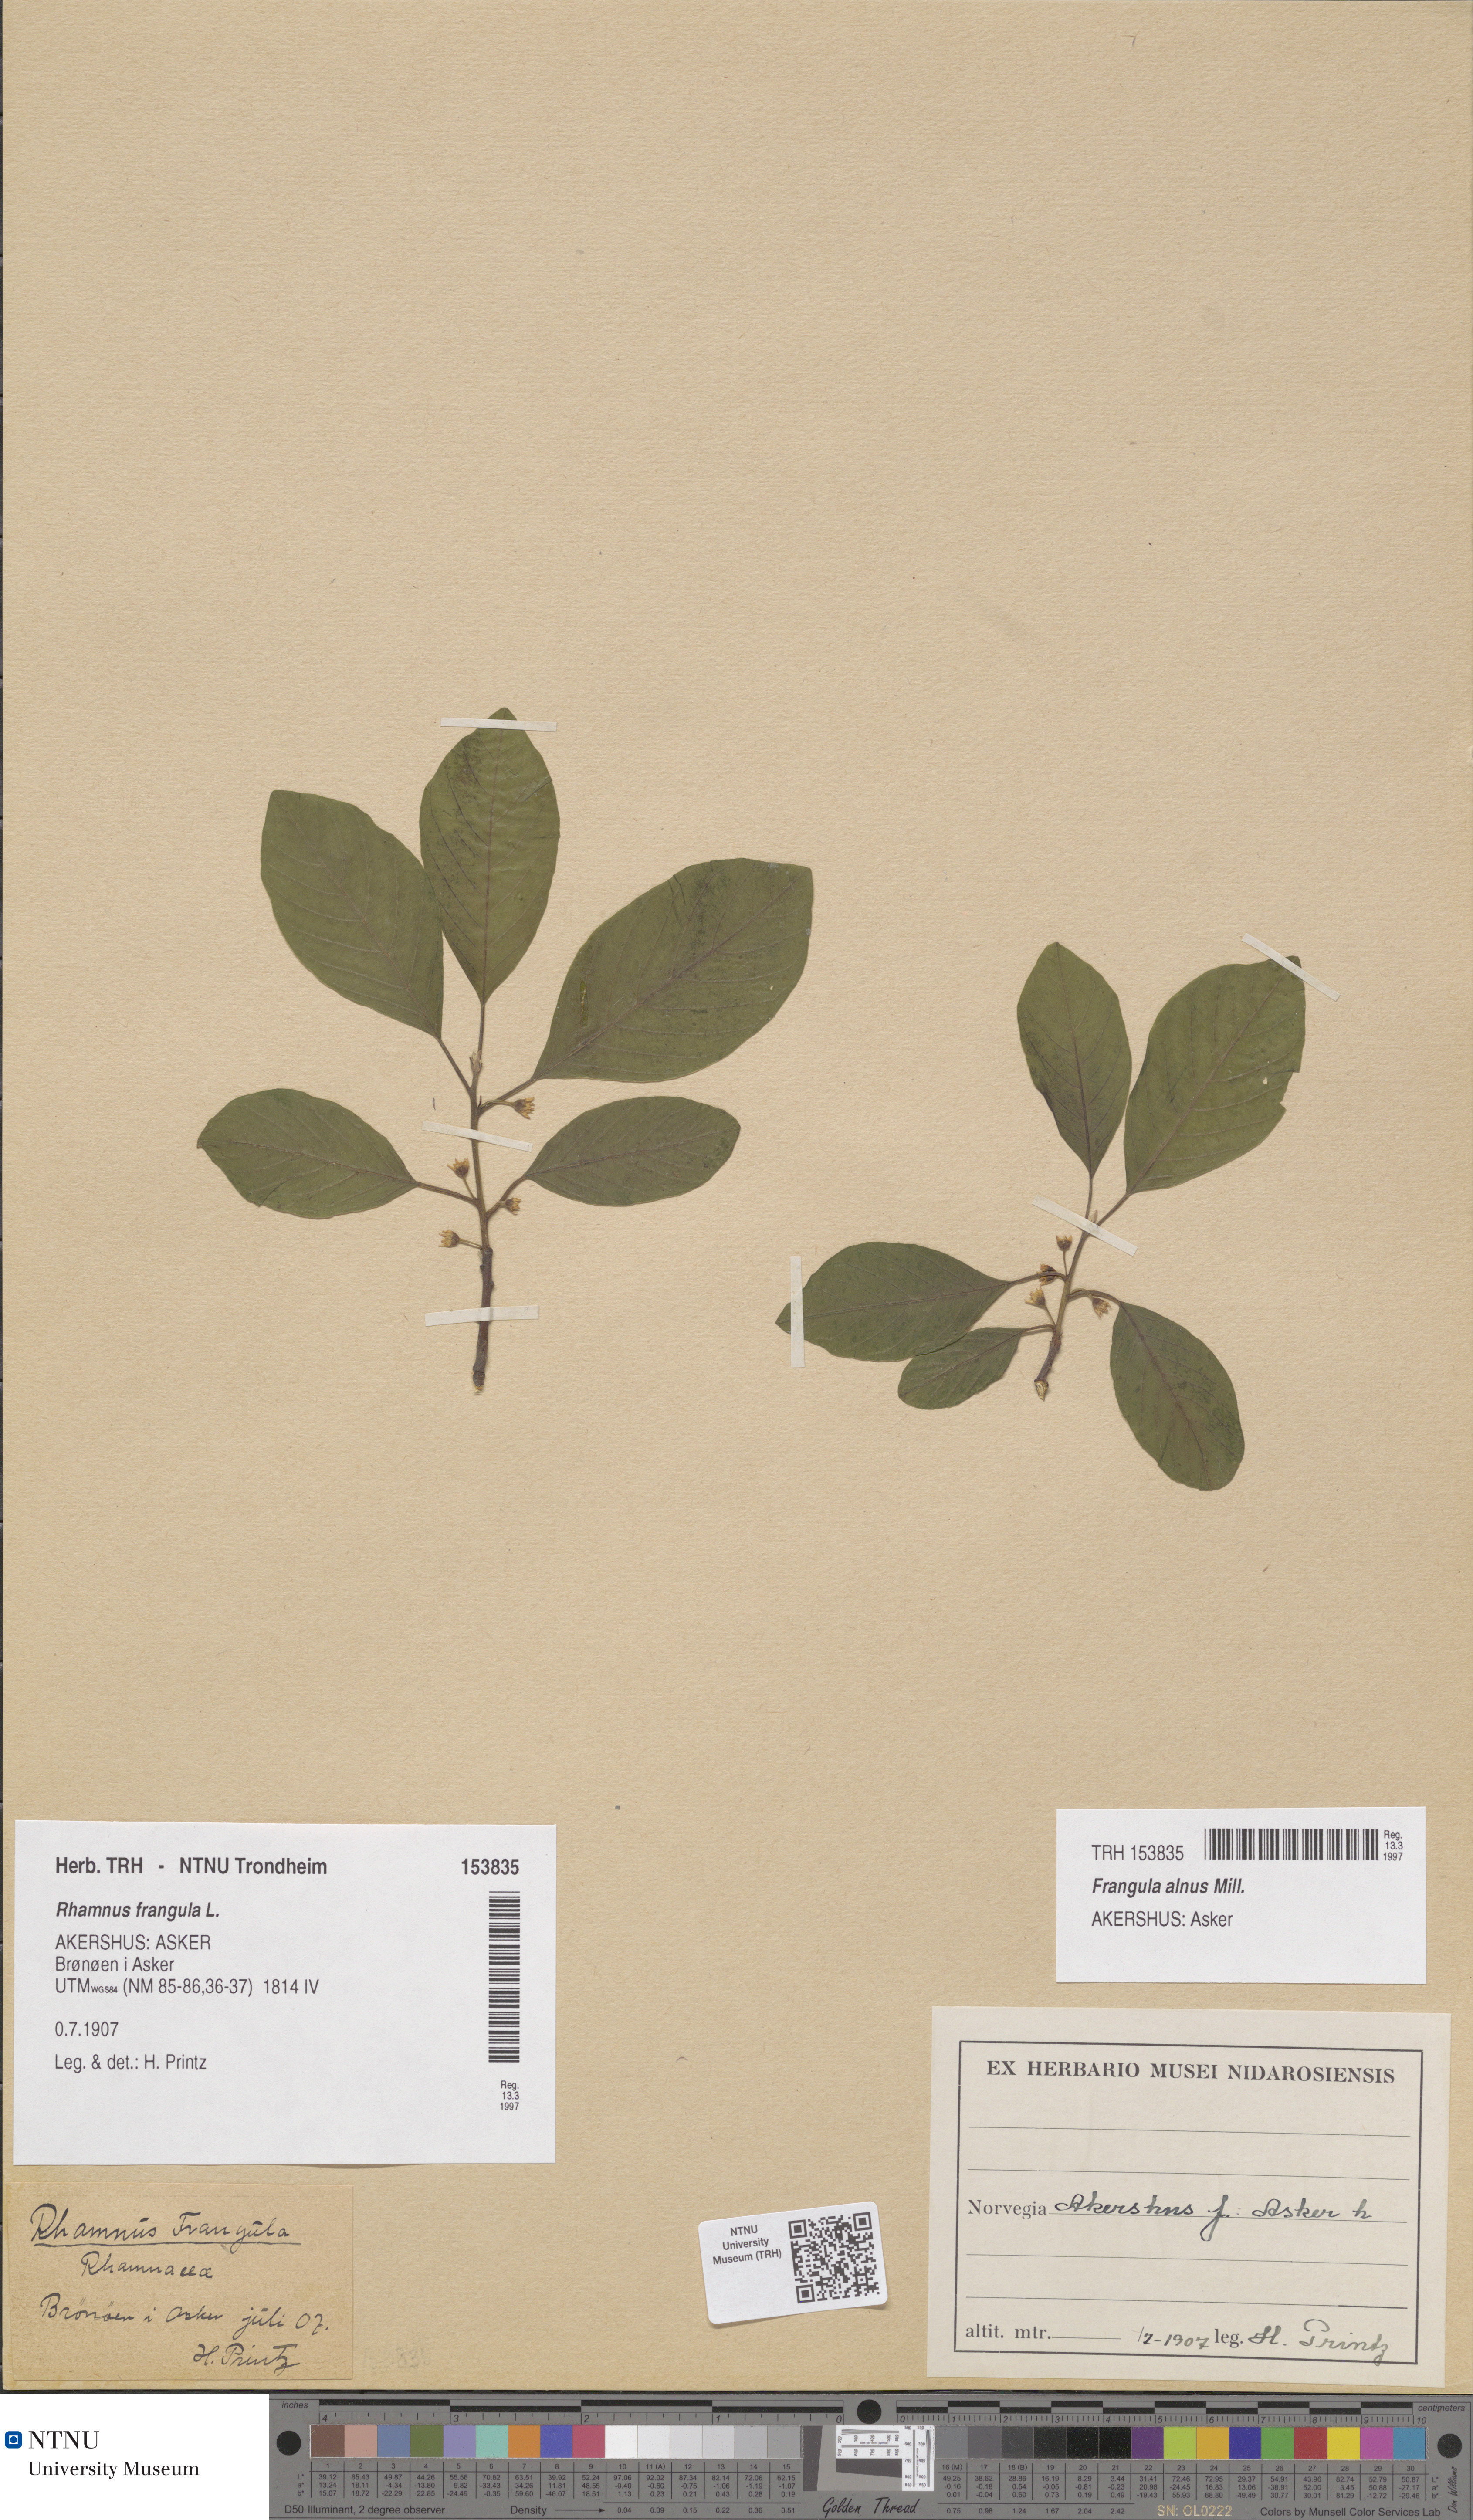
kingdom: Plantae
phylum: Tracheophyta
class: Magnoliopsida
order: Rosales
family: Rhamnaceae
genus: Frangula
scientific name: Frangula alnus
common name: Alder buckthorn
